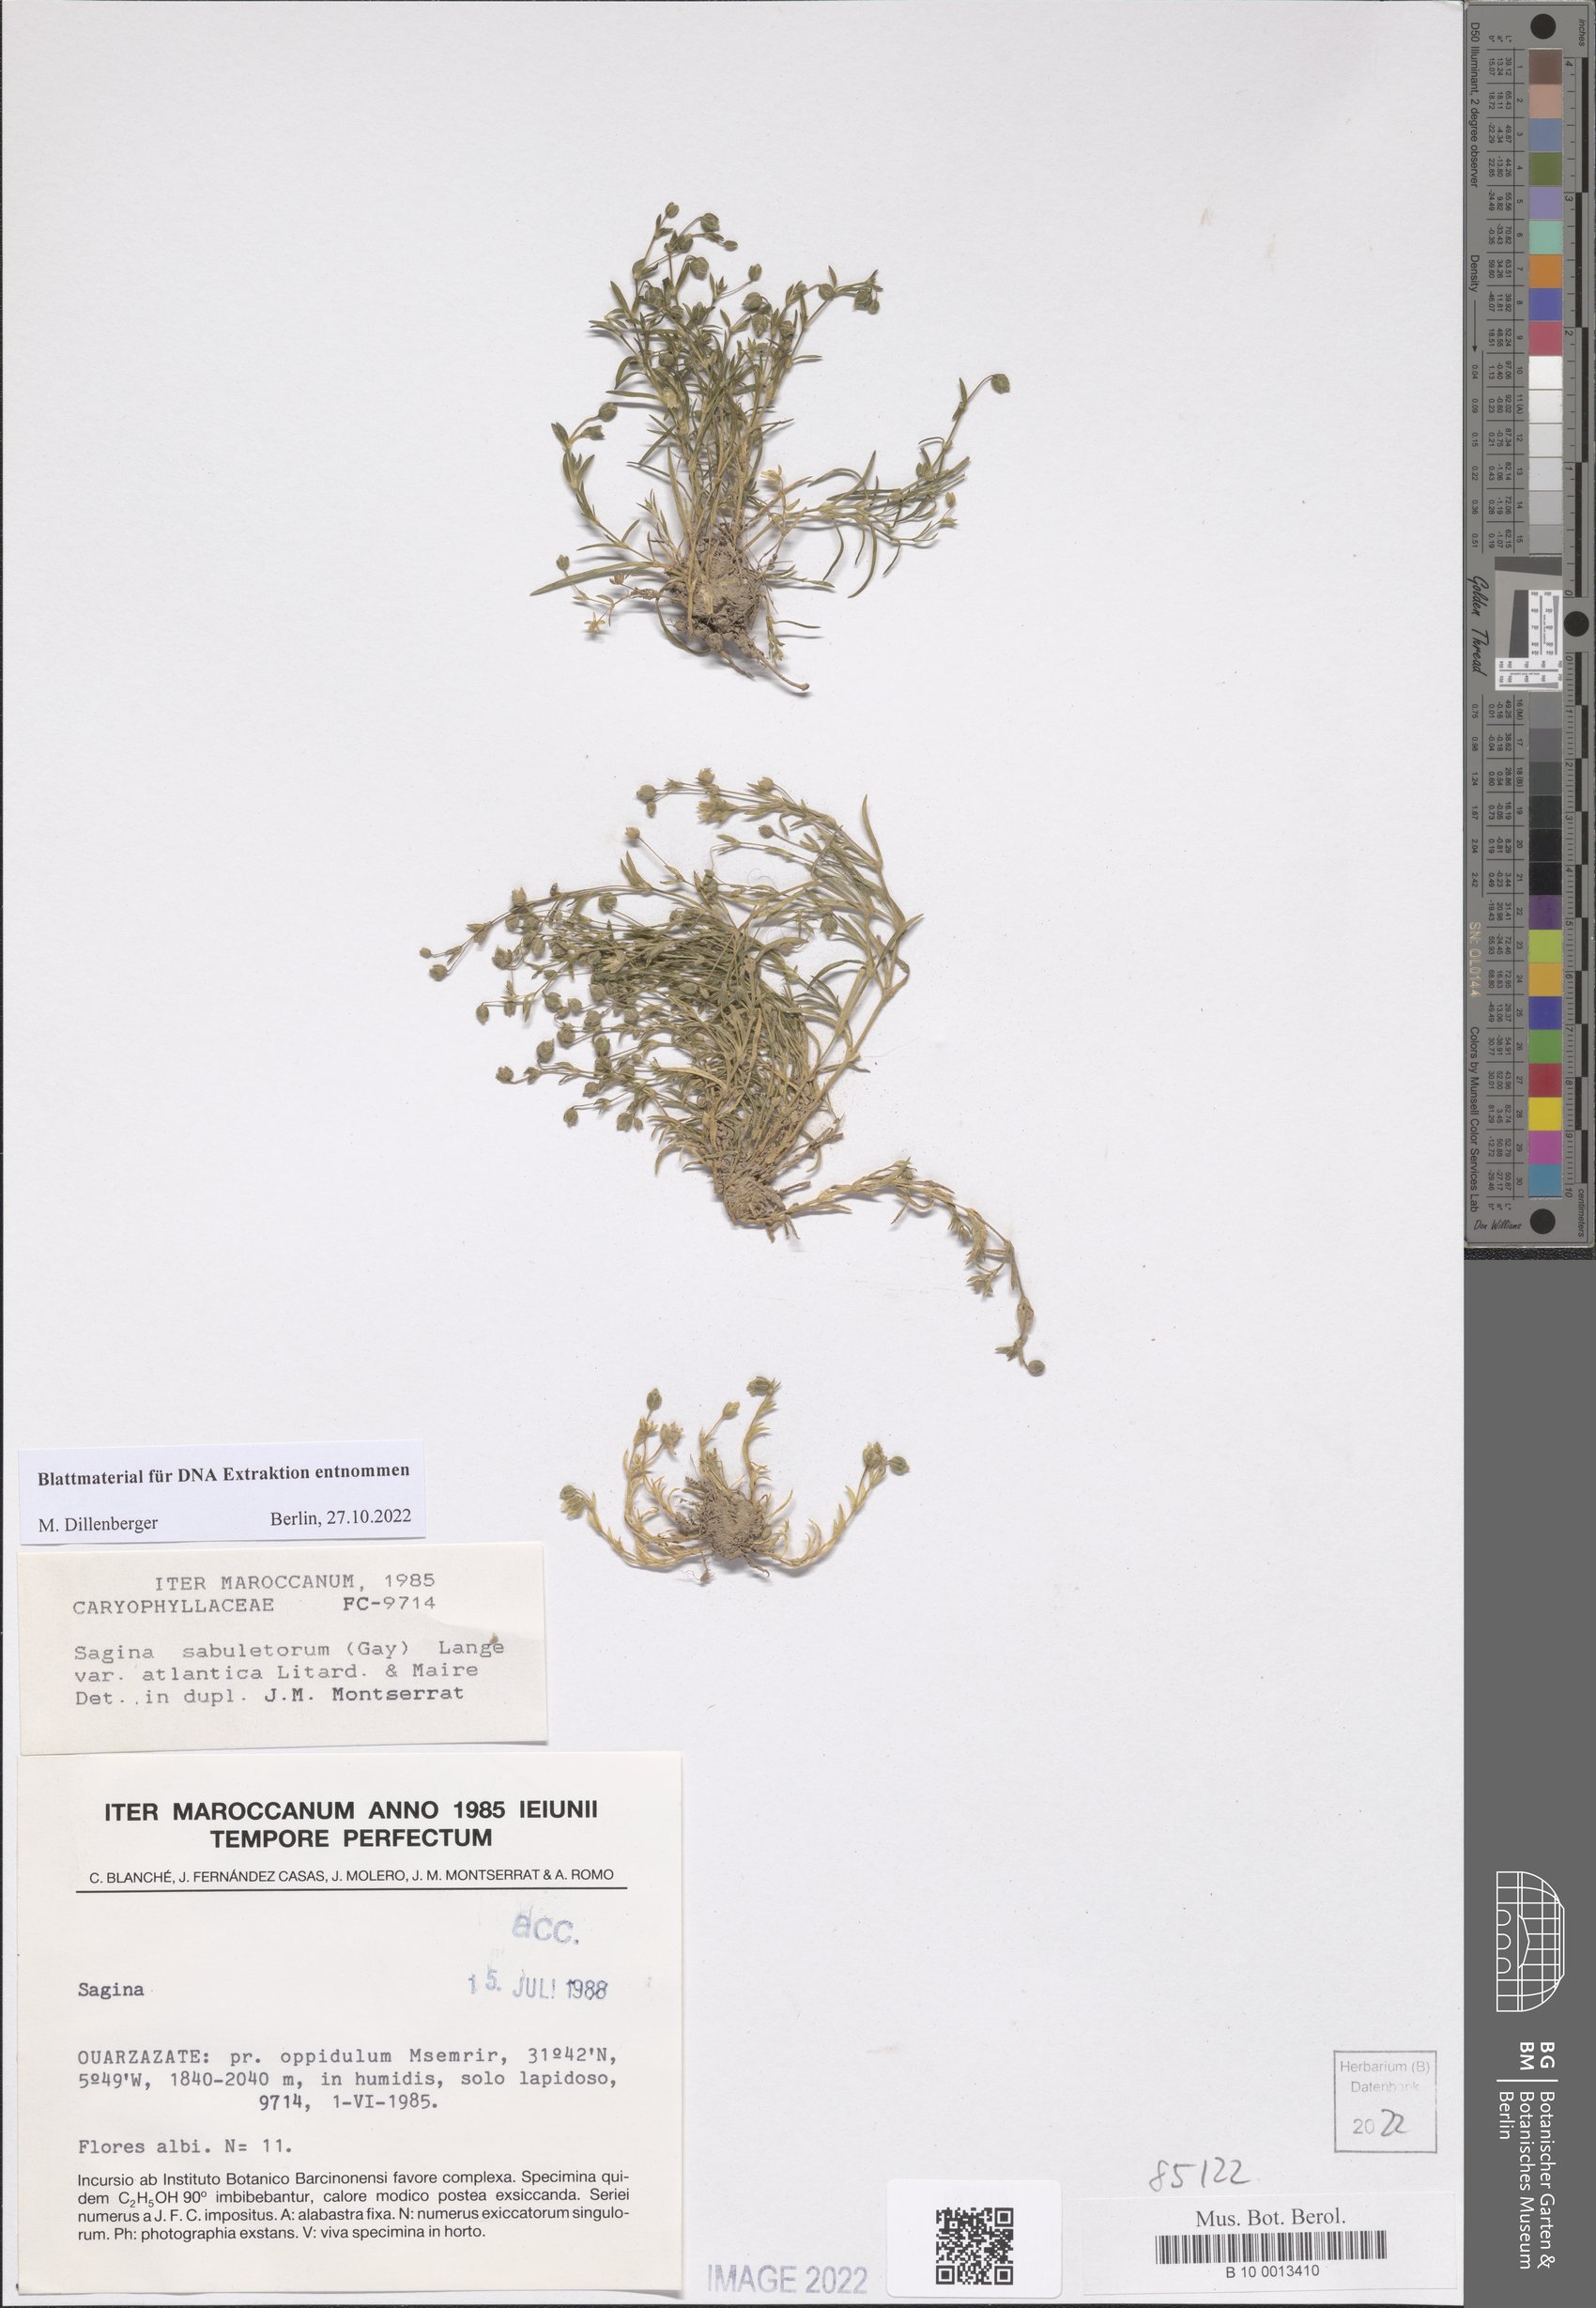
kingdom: Plantae
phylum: Tracheophyta
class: Magnoliopsida
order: Caryophyllales
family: Caryophyllaceae
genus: Sagina
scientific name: Sagina sabuletorum
